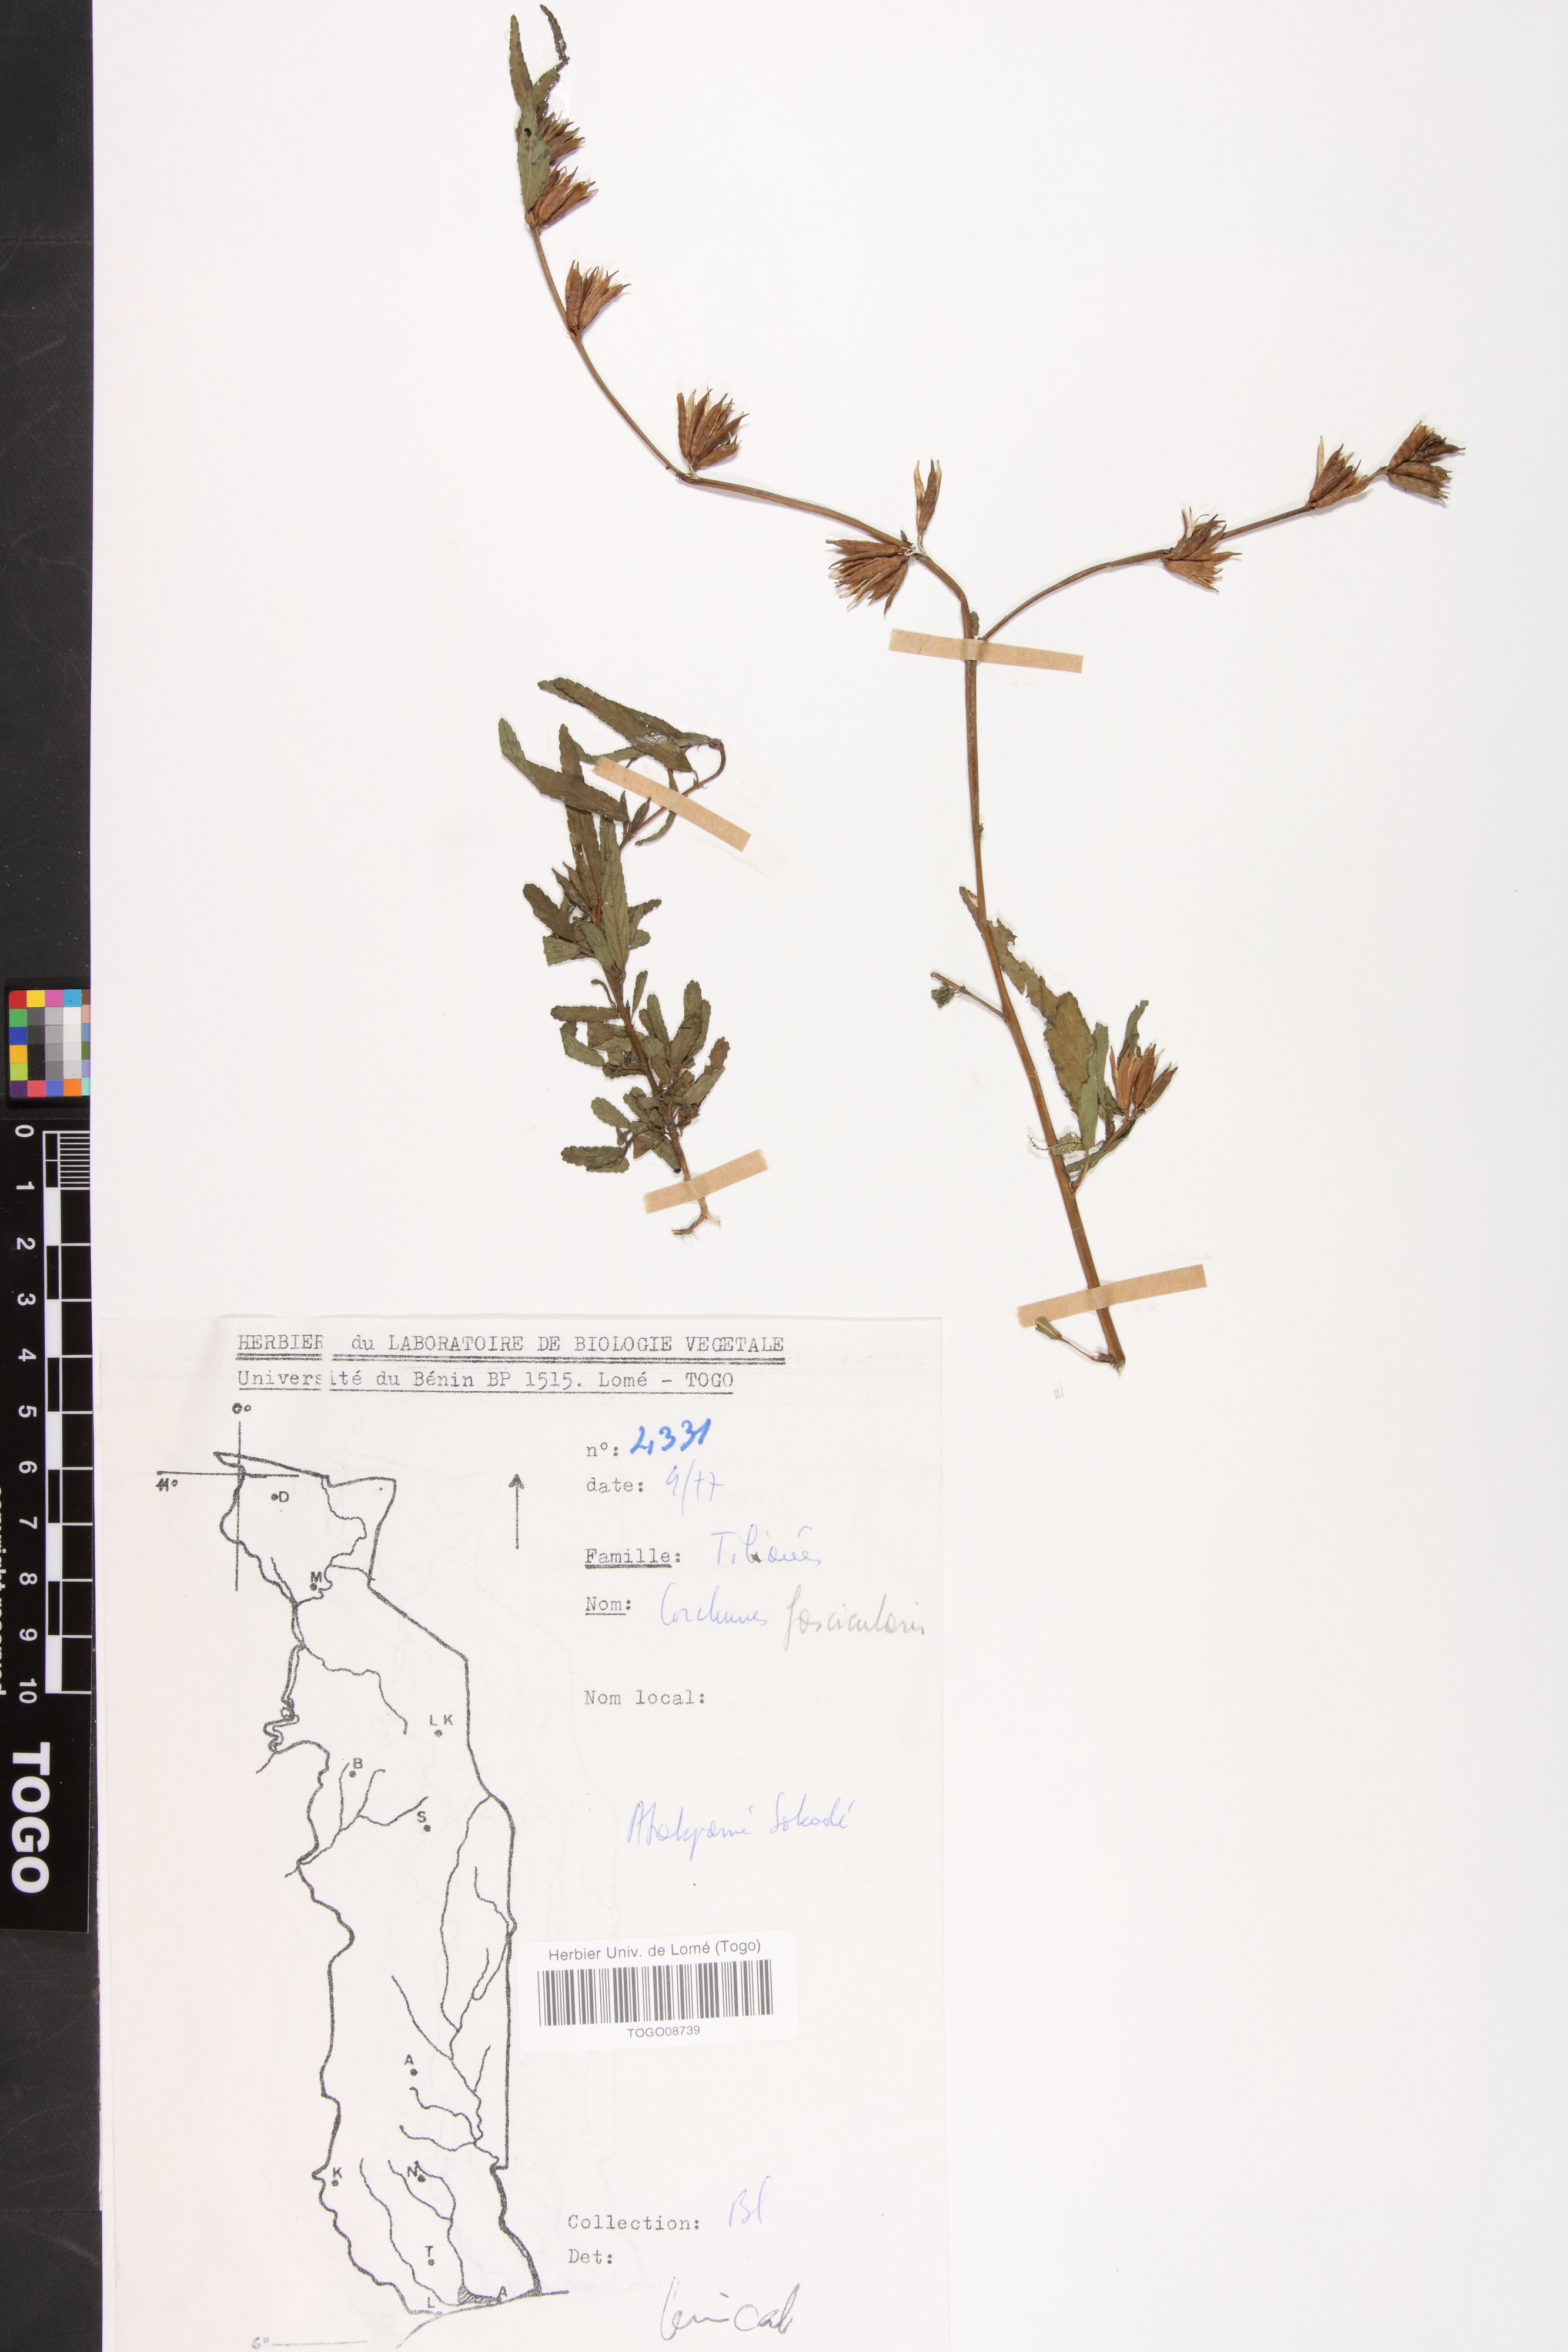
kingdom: Plantae
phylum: Tracheophyta
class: Magnoliopsida
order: Malvales
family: Malvaceae
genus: Corchorus
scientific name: Corchorus fascicularis
